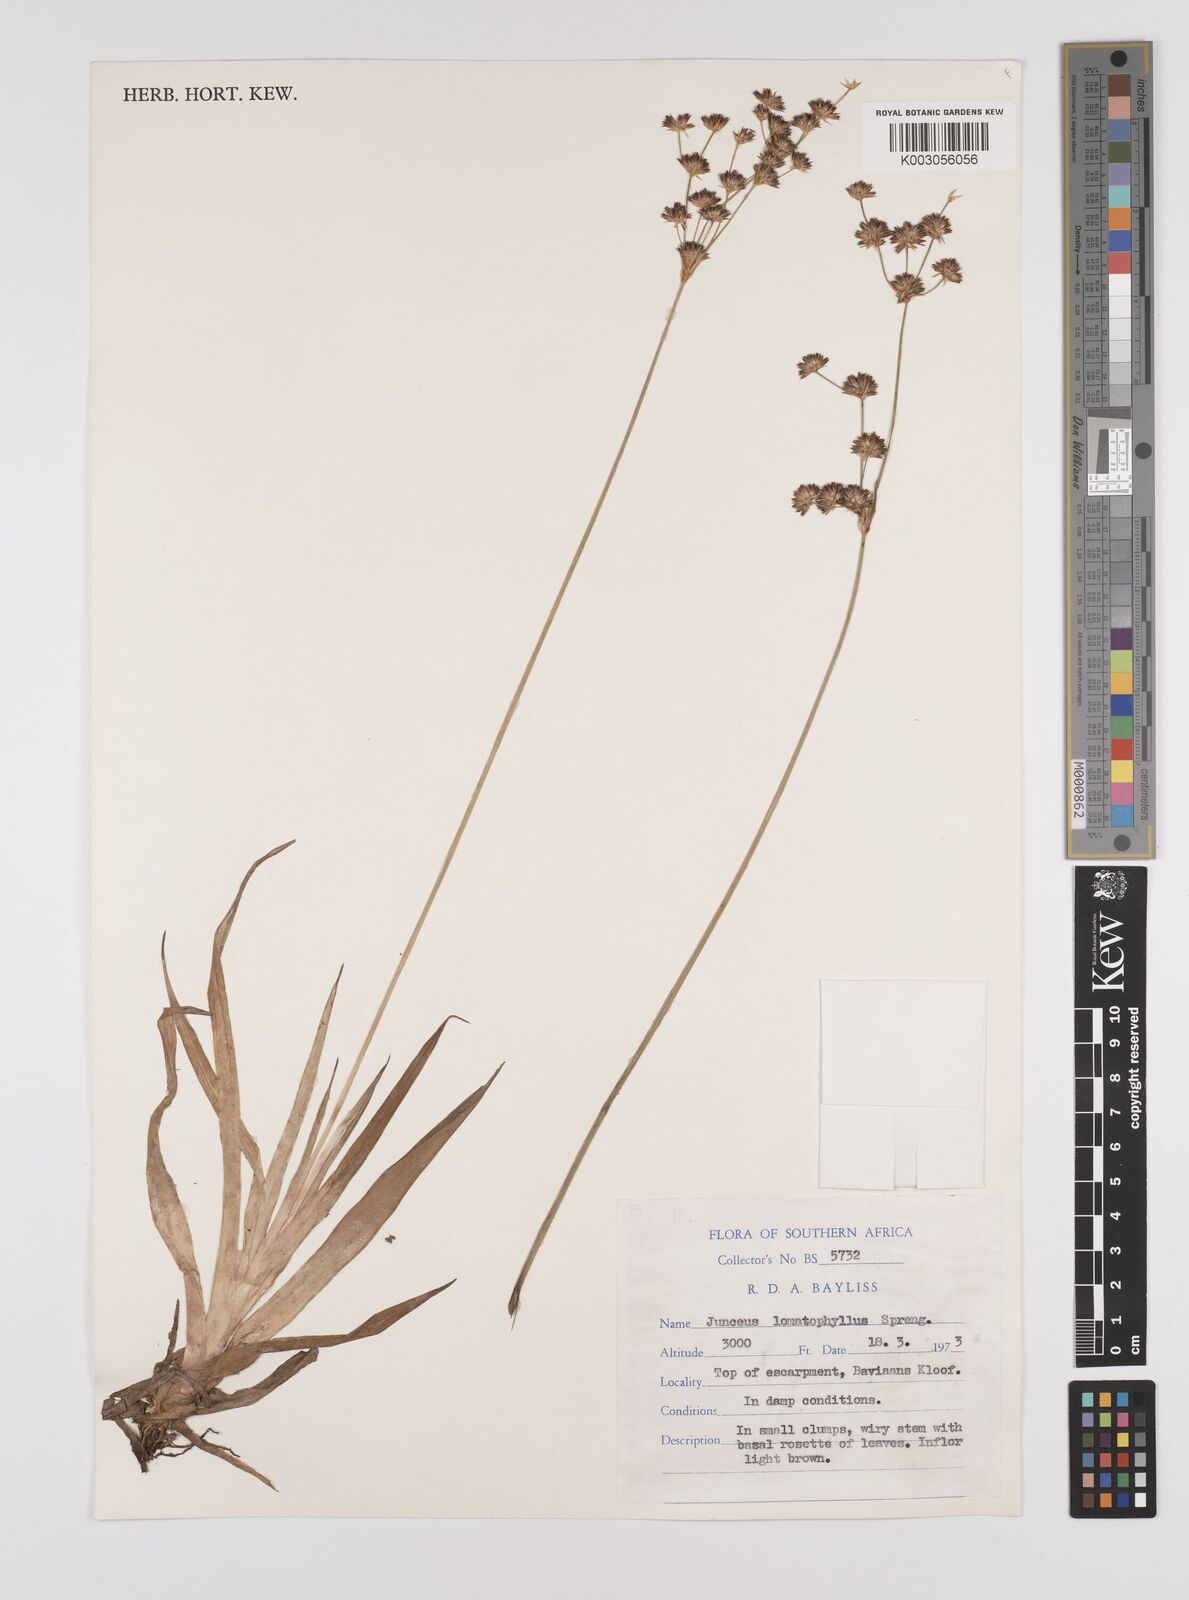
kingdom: Plantae
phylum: Tracheophyta
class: Liliopsida
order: Poales
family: Juncaceae
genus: Juncus
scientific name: Juncus lomatophyllus
